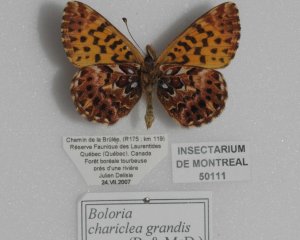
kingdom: Animalia
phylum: Arthropoda
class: Insecta
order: Lepidoptera
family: Nymphalidae
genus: Boloria
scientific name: Boloria chariclea
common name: Arctic Fritillary
